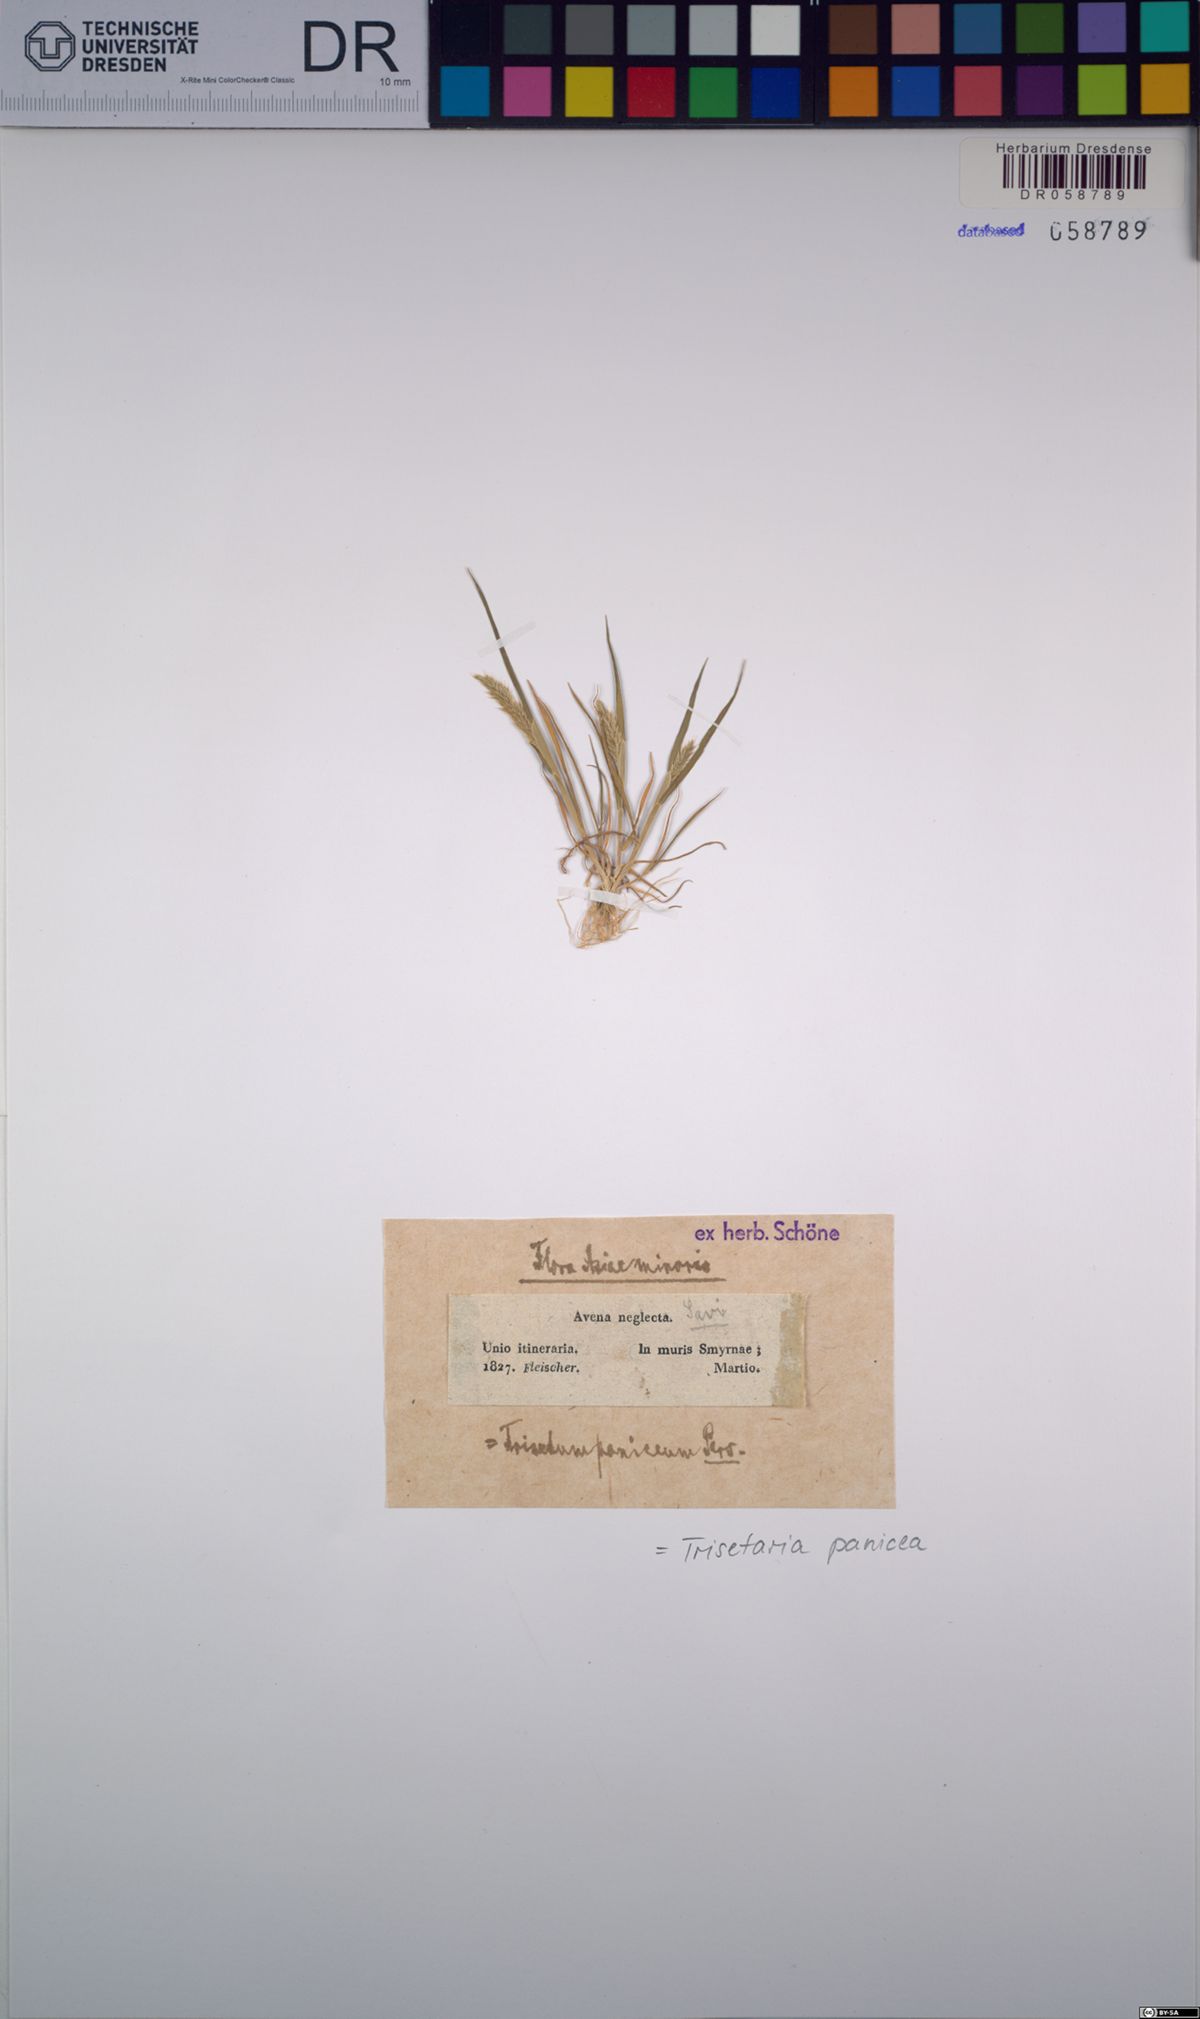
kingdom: Plantae
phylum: Tracheophyta
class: Liliopsida
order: Poales
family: Poaceae
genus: Trisetaria
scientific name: Trisetaria panicea
